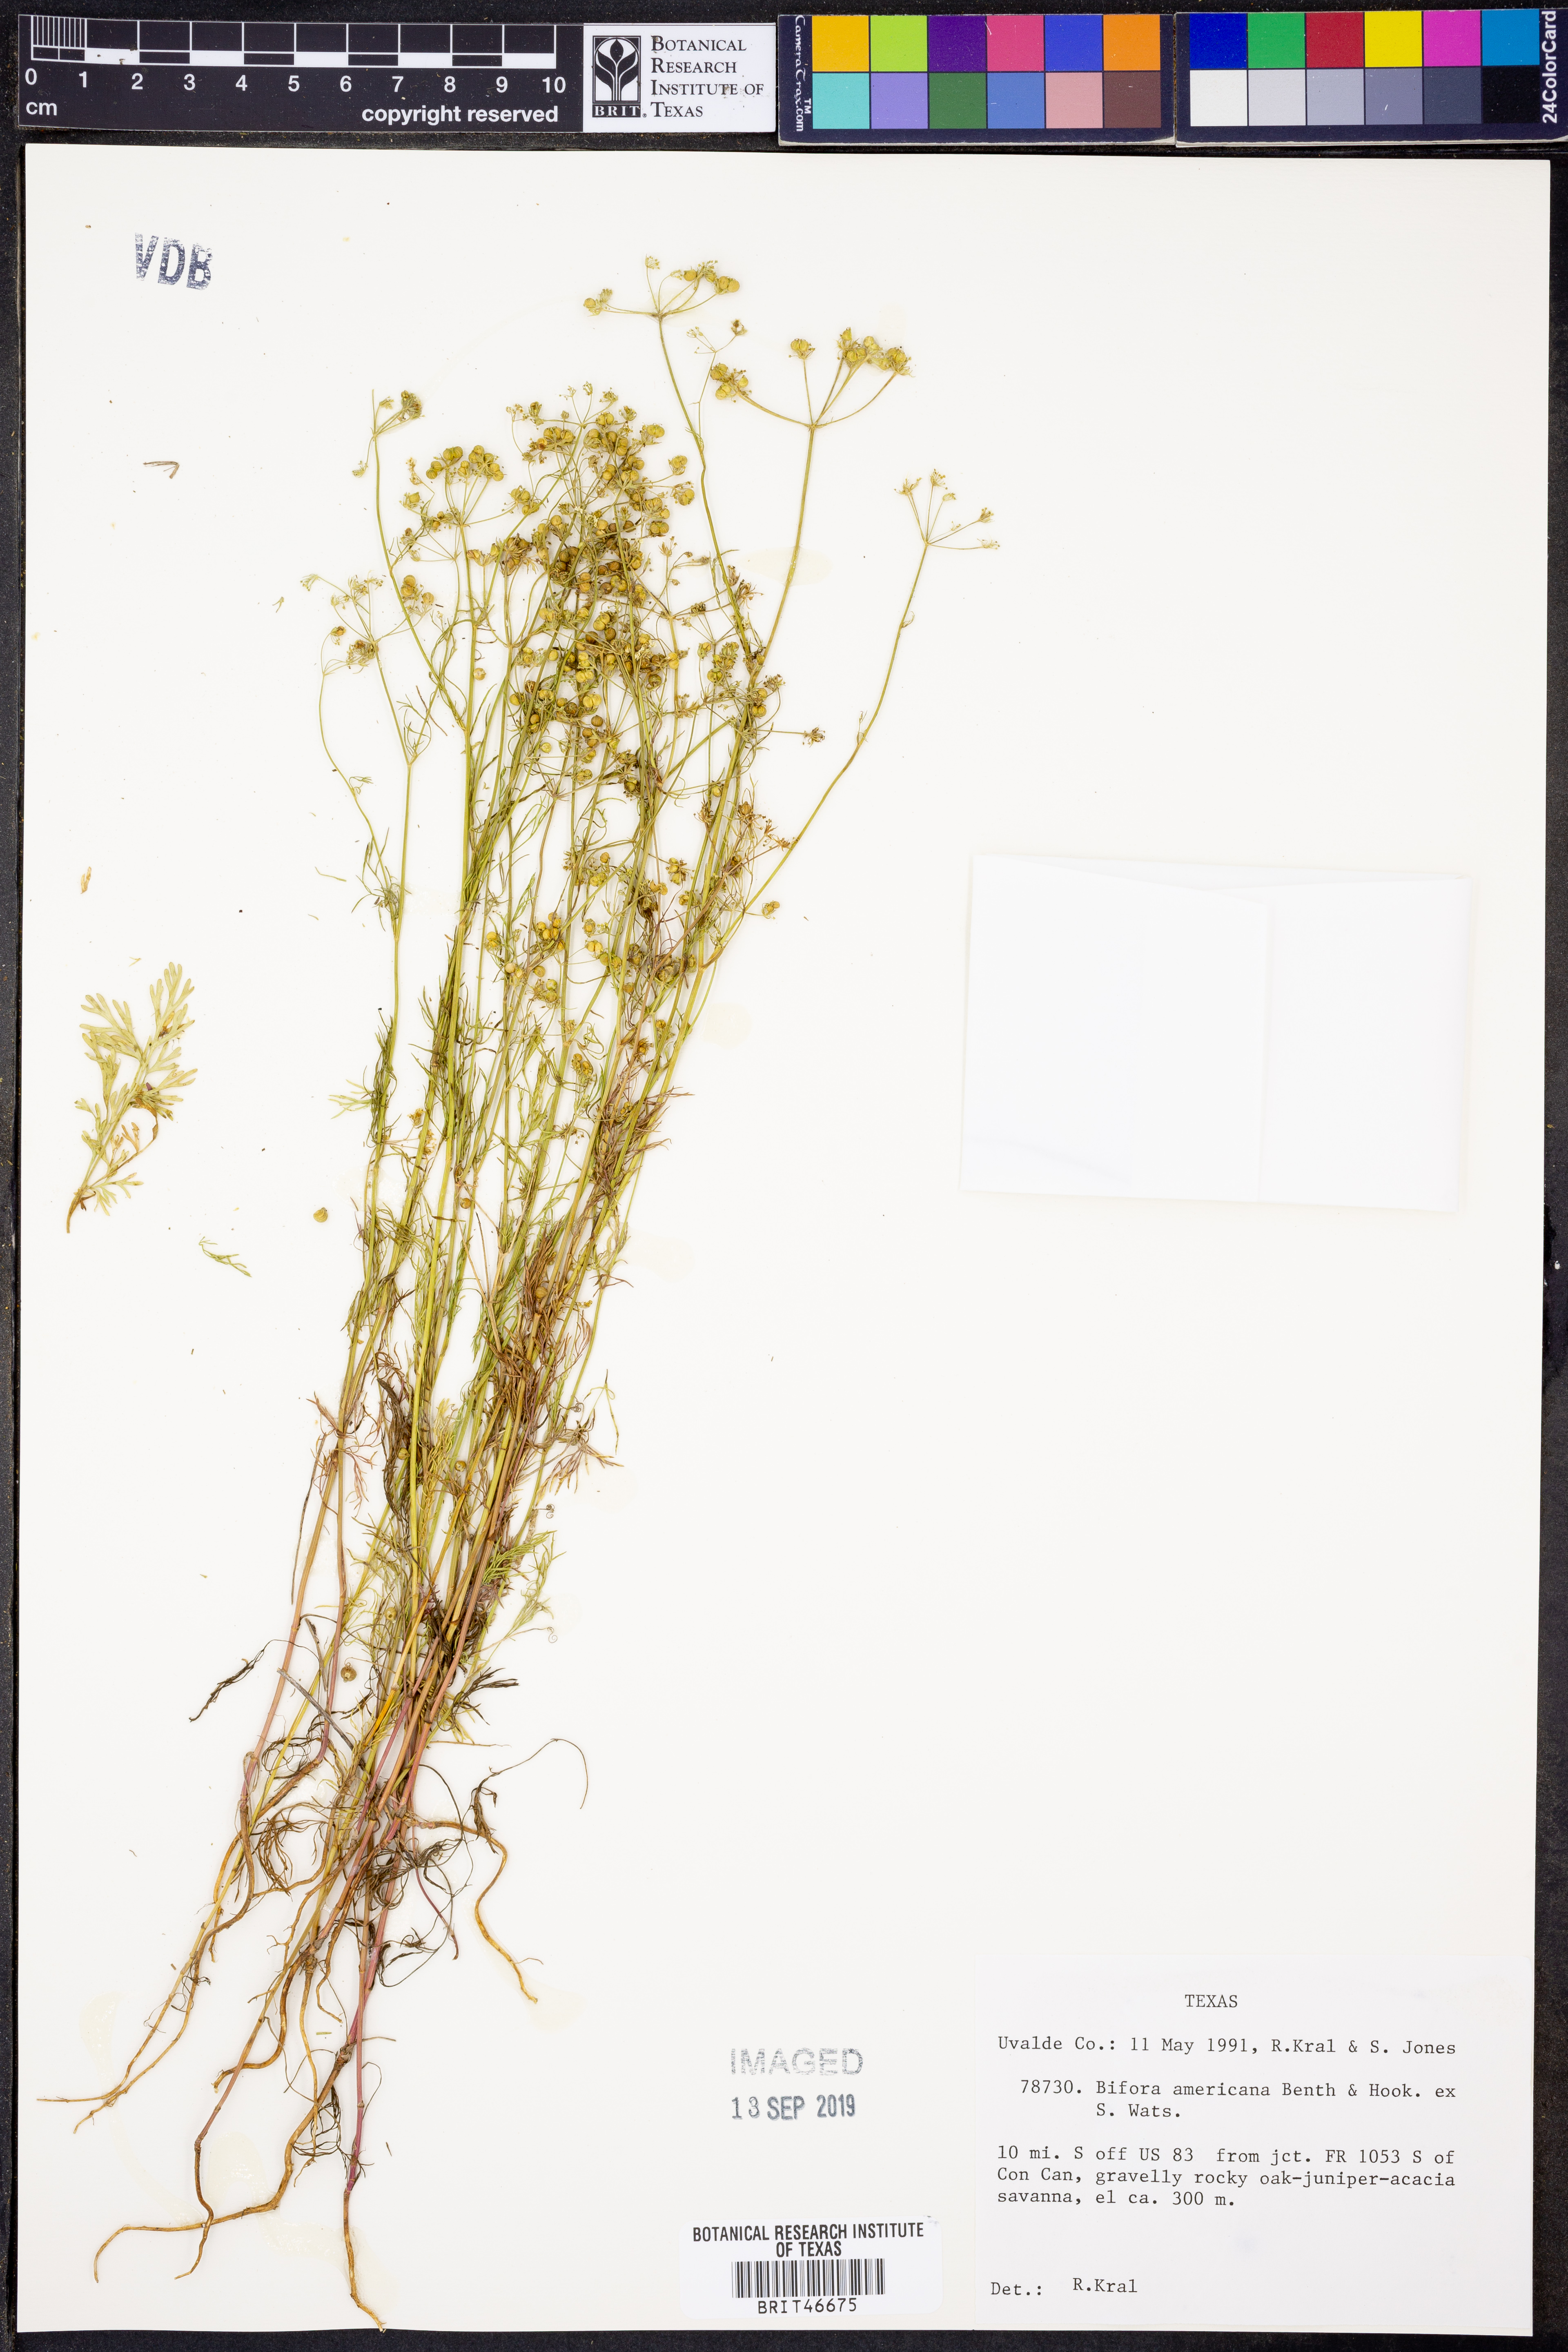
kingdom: Plantae
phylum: Tracheophyta
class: Magnoliopsida
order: Apiales
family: Apiaceae
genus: Atrema
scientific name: Atrema americanum
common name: Prairie-bishop
